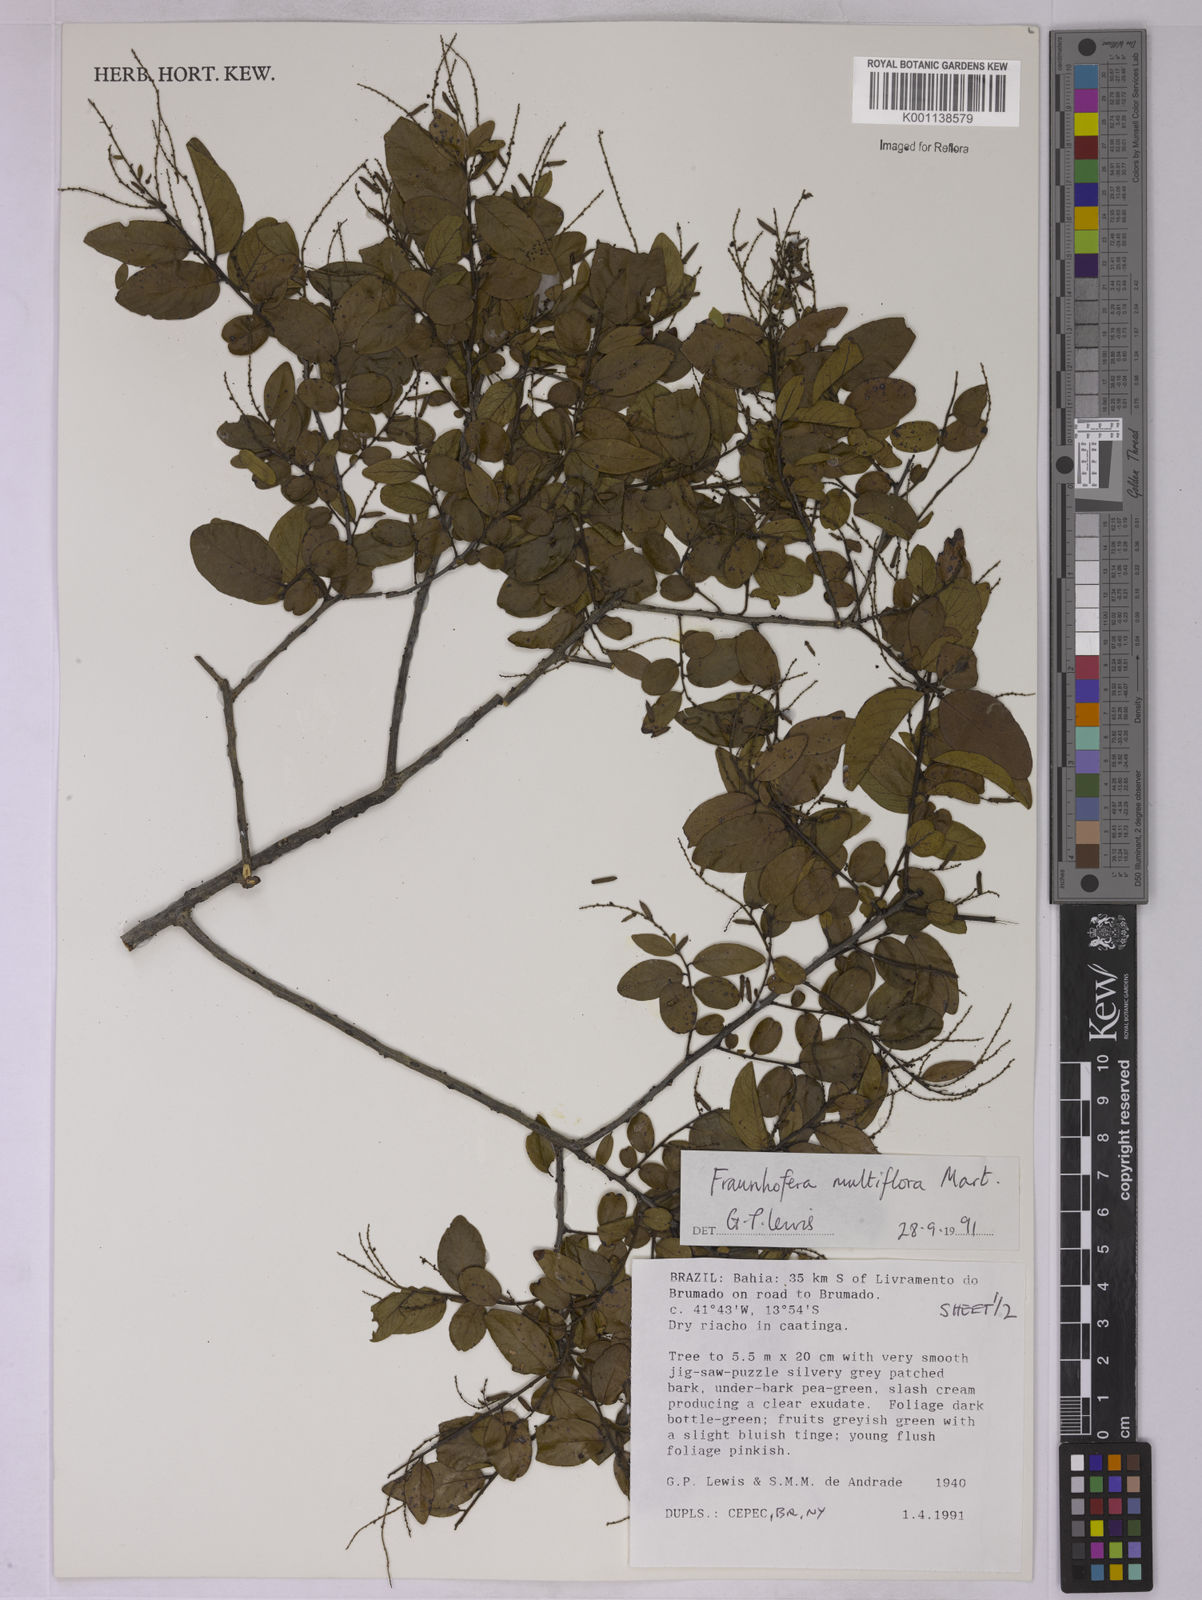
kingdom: Plantae
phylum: Tracheophyta
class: Magnoliopsida
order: Celastrales
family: Celastraceae
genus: Fraunhofera
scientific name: Fraunhofera multiflora
